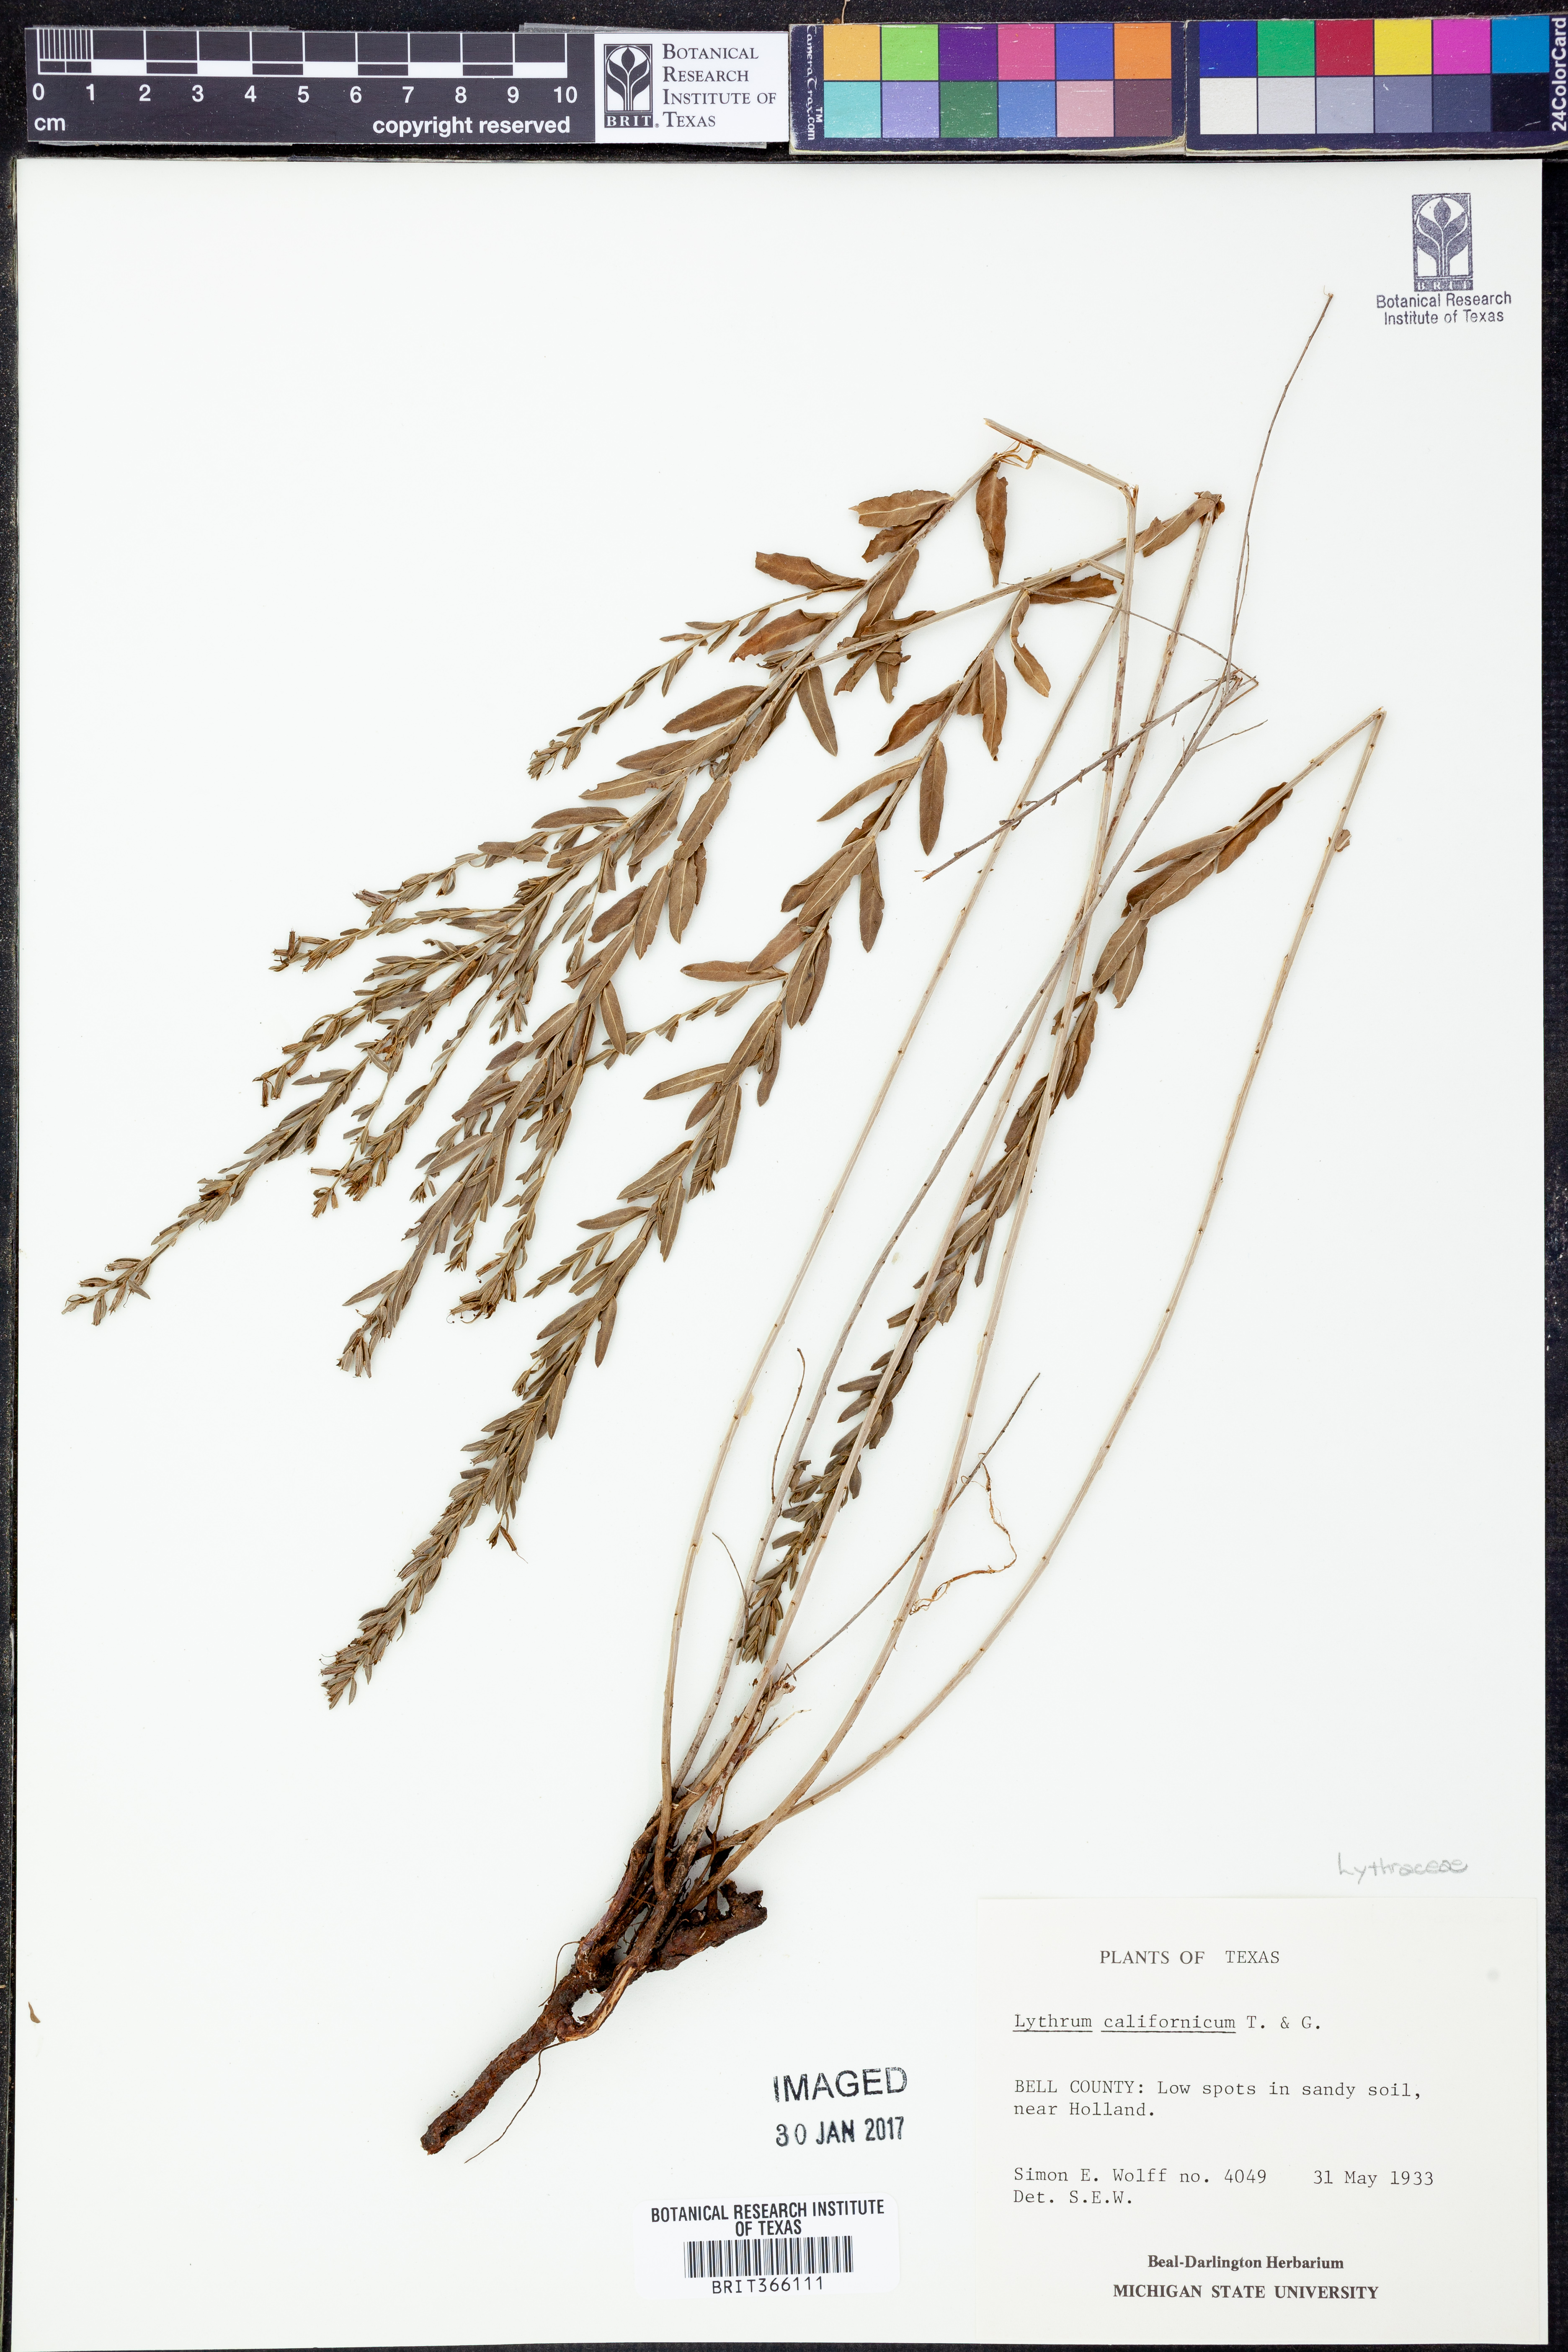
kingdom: Plantae
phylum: Tracheophyta
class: Magnoliopsida
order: Myrtales
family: Lythraceae
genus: Lythrum
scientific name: Lythrum californicum
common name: California loosestrife
